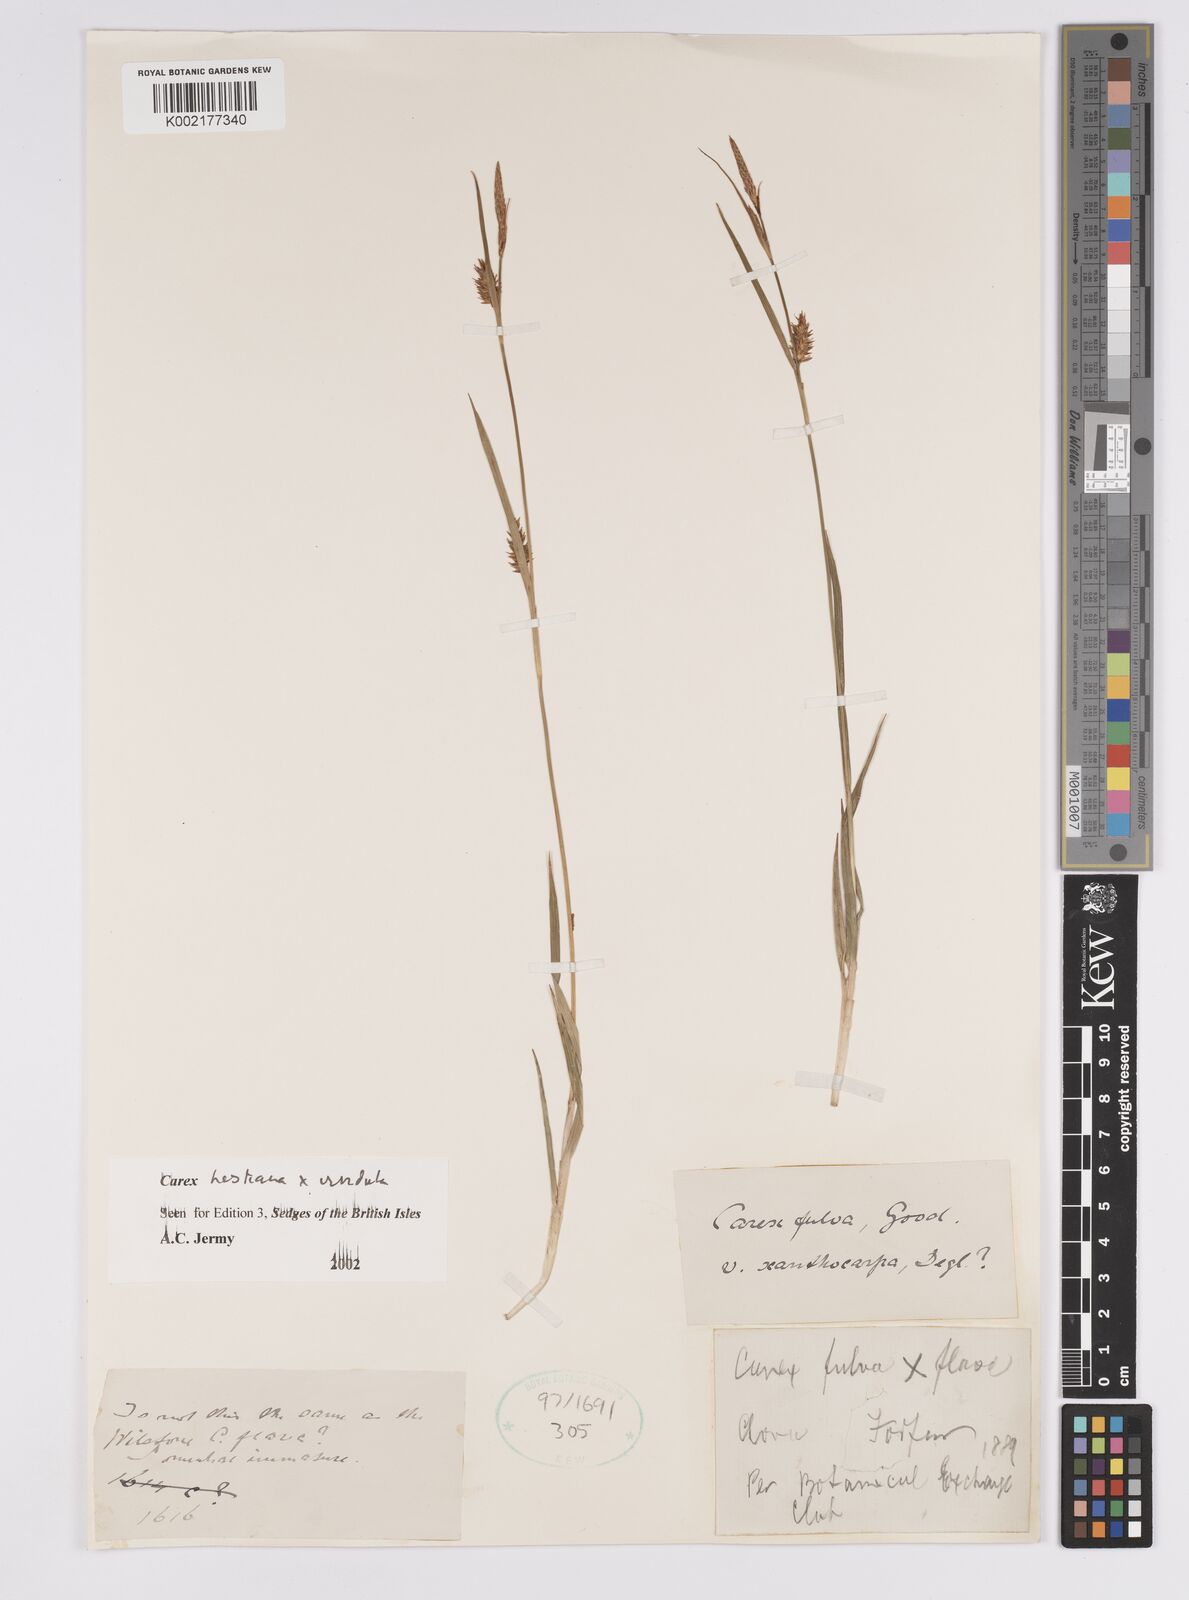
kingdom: Plantae
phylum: Tracheophyta
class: Liliopsida
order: Poales
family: Cyperaceae
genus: Carex
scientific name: Carex hostiana
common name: Tawny sedge
